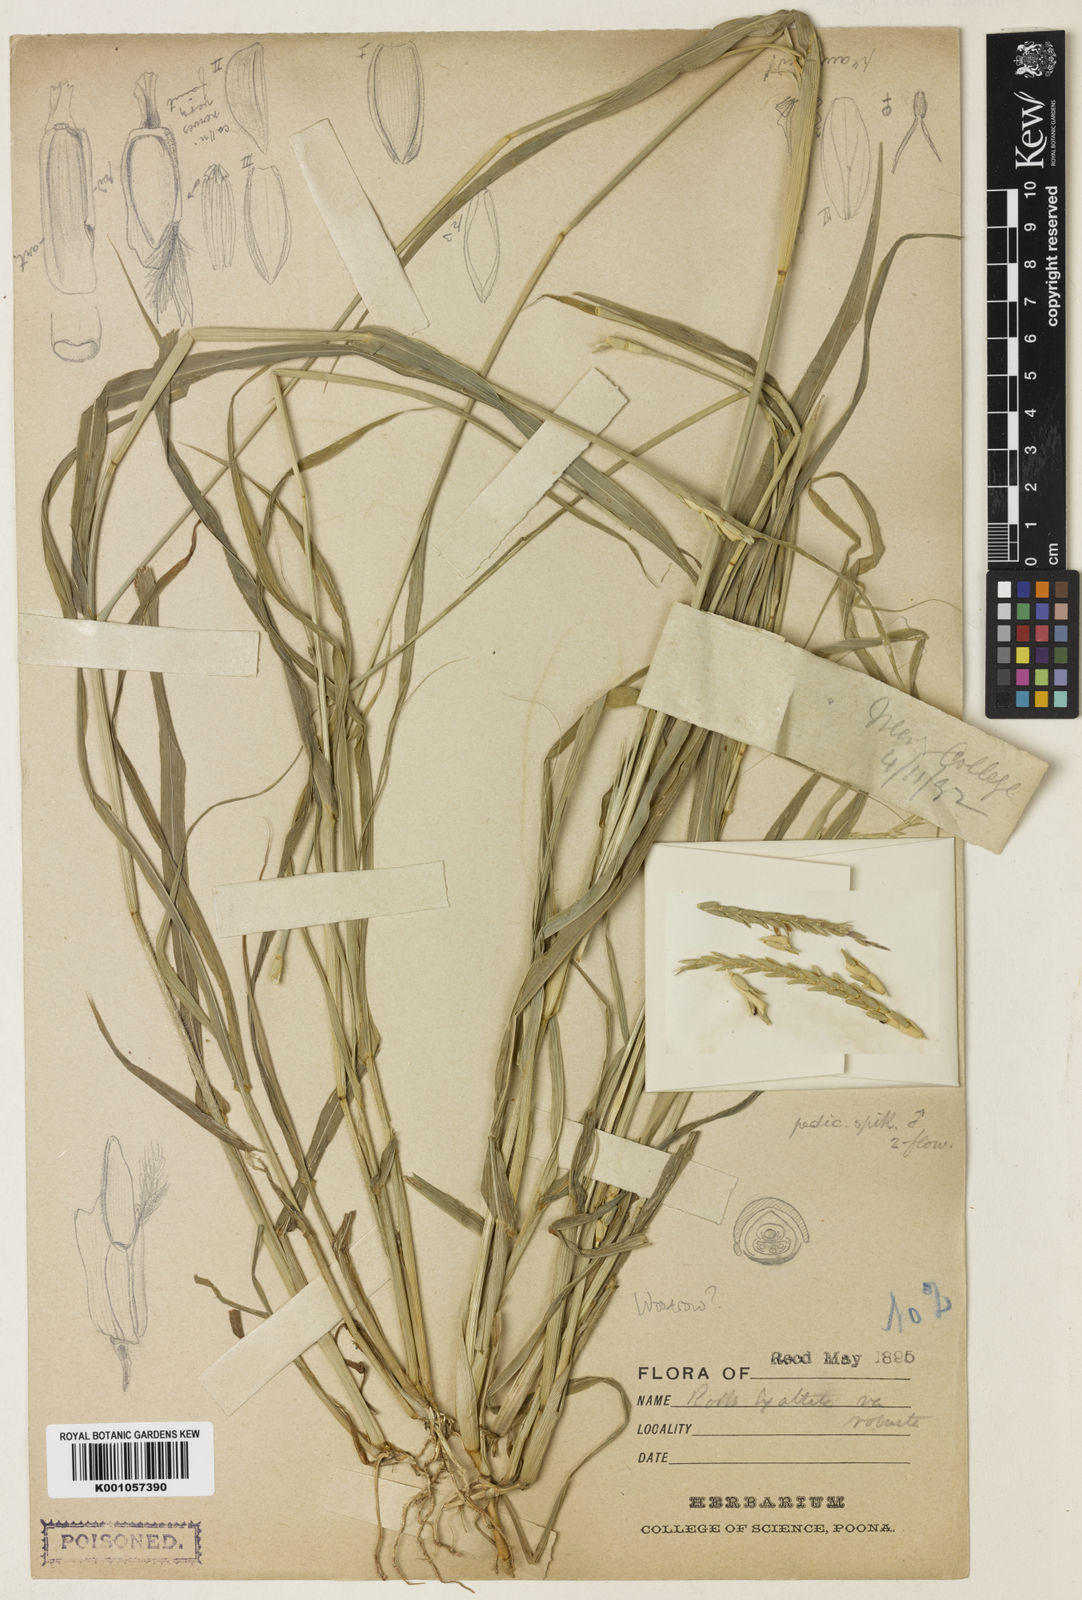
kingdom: Plantae
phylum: Tracheophyta
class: Liliopsida
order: Poales
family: Poaceae
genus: Rottboellia
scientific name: Rottboellia cochinchinensis
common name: Itchgrass
